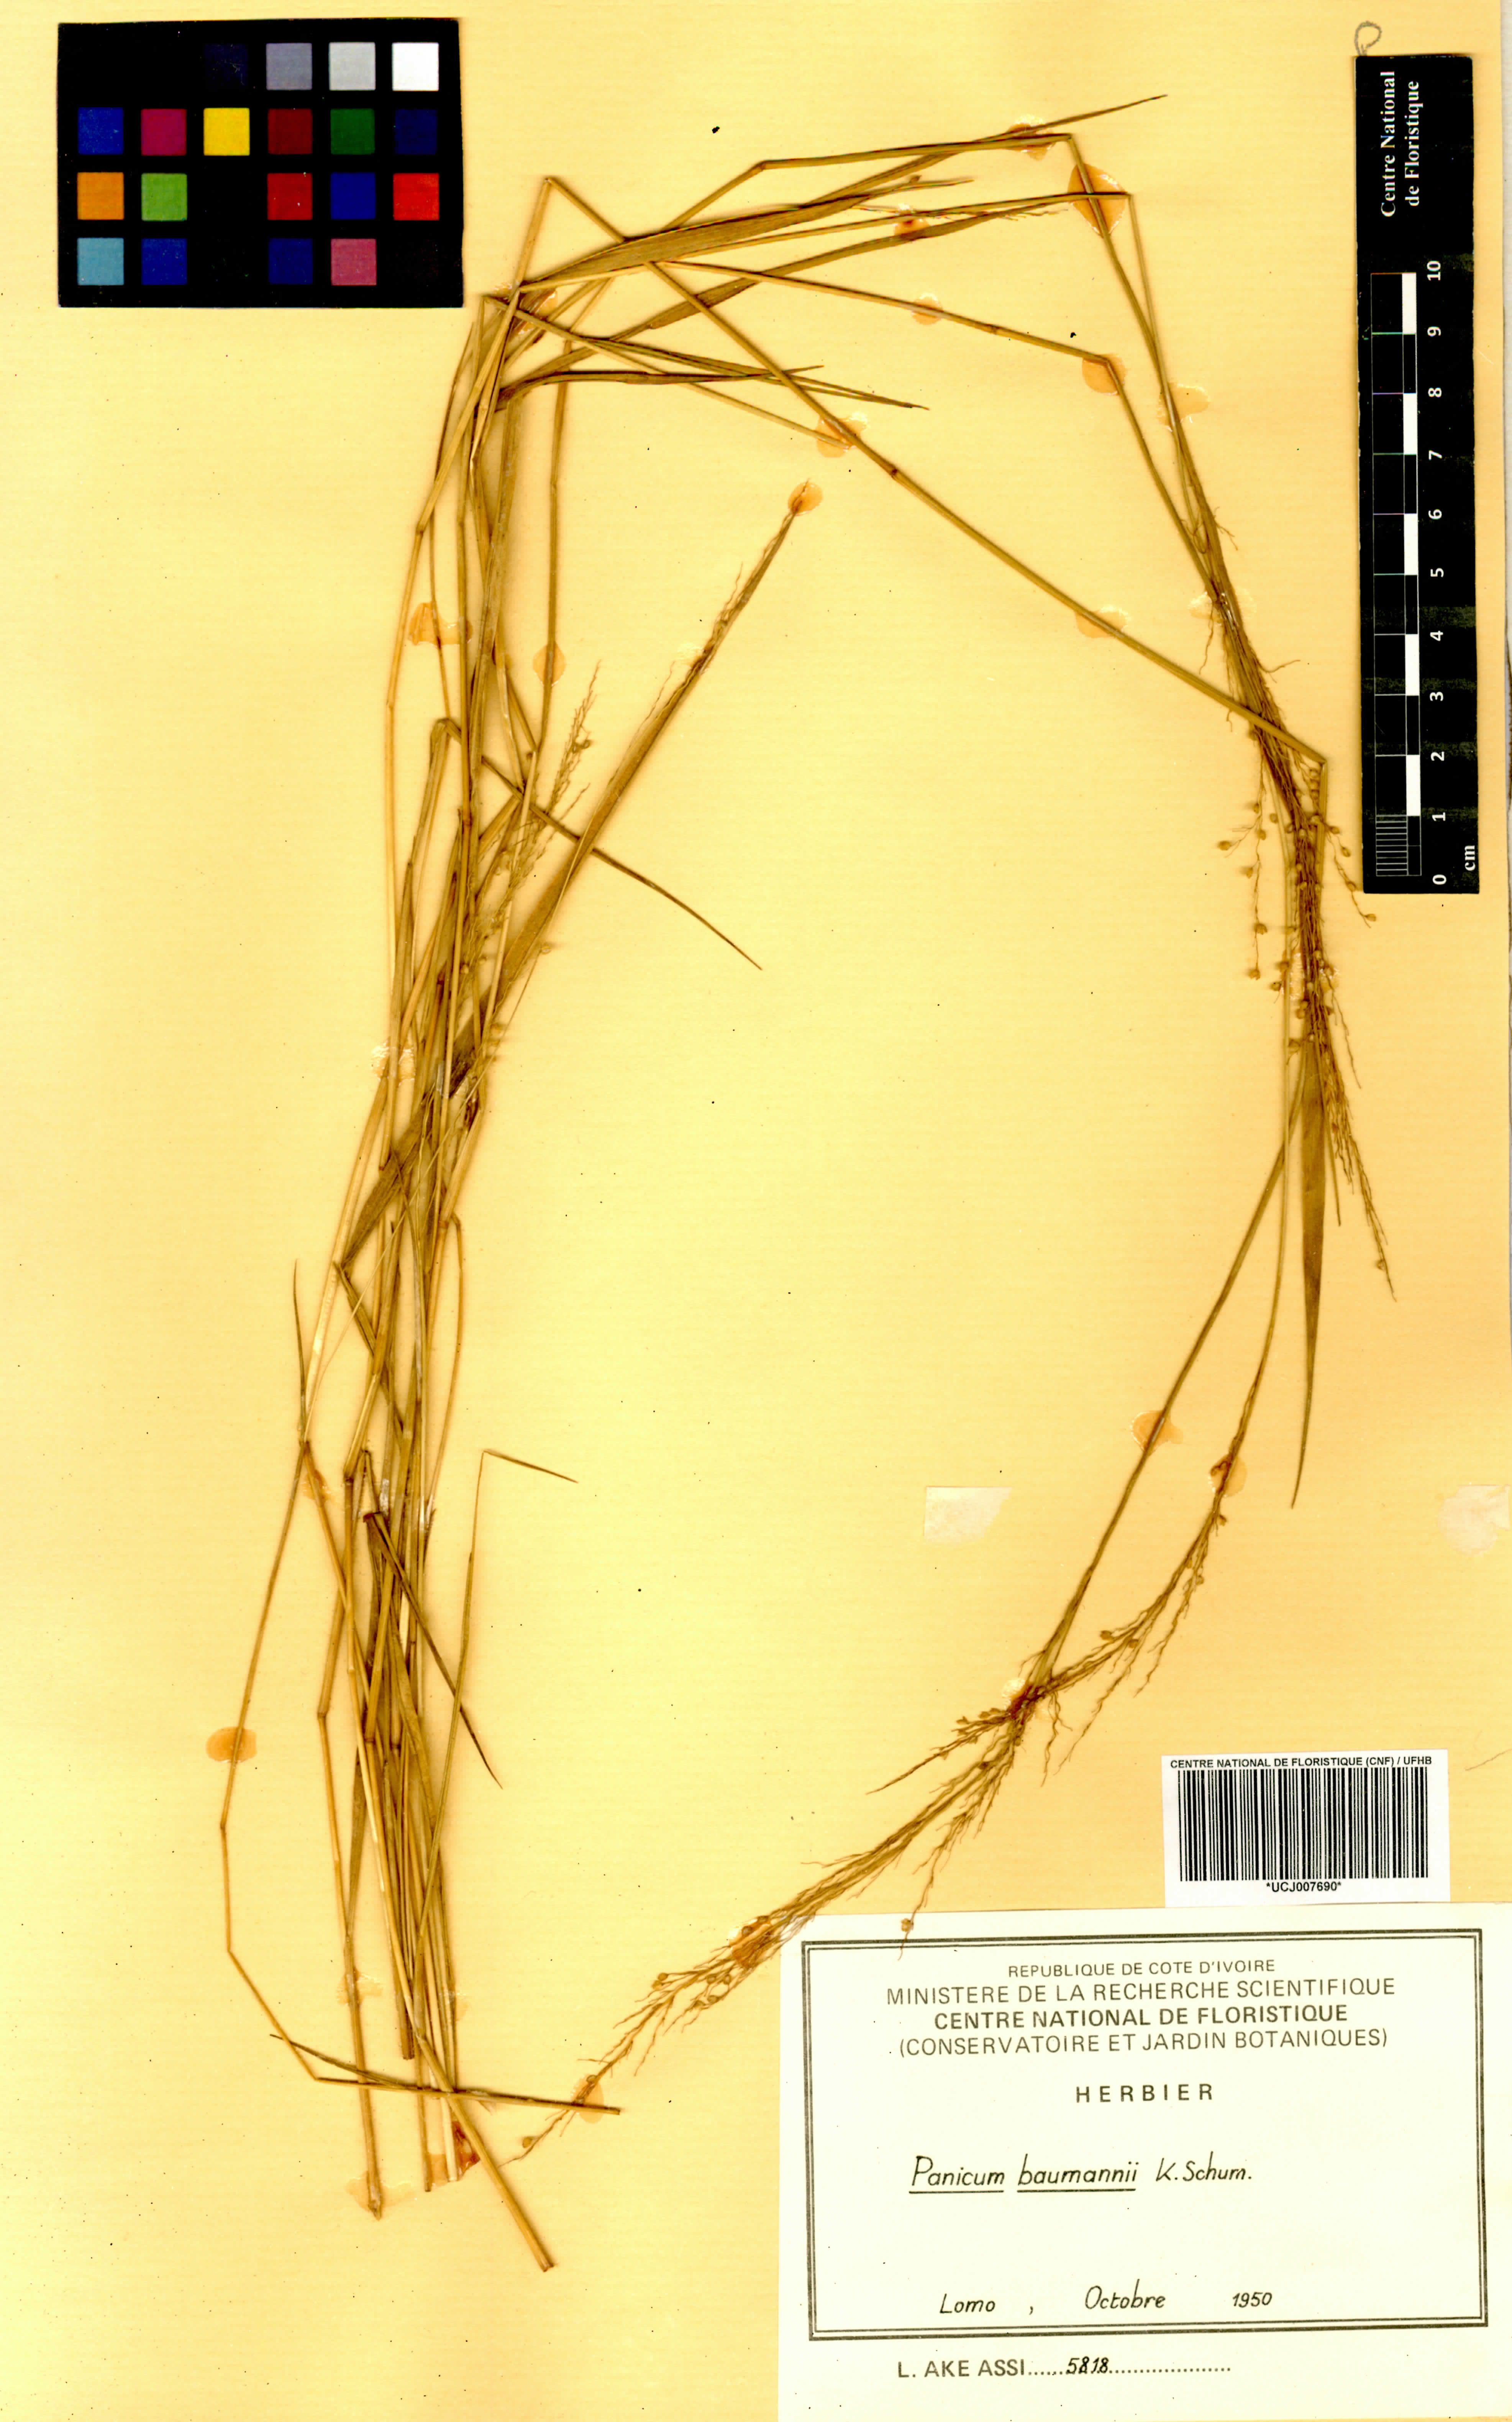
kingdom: Plantae
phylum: Tracheophyta
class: Liliopsida
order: Poales
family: Poaceae
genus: Trichanthecium
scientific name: Trichanthecium nervatum
